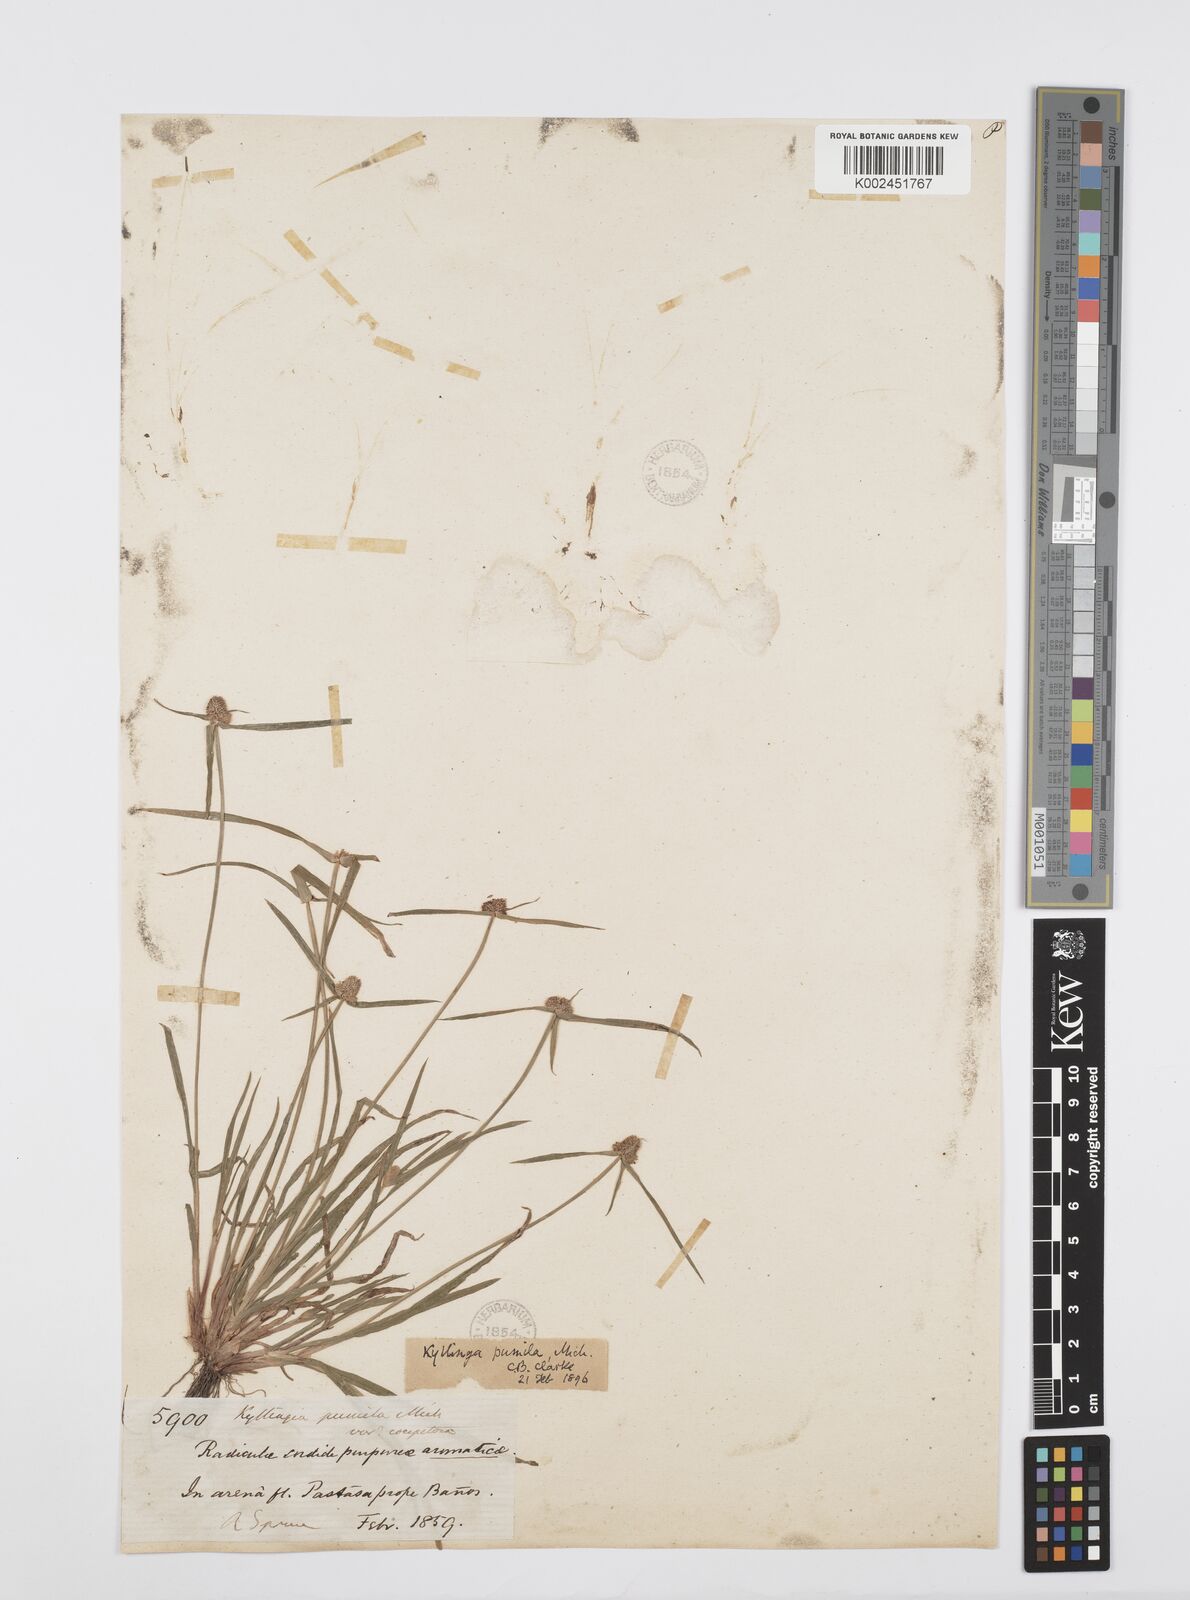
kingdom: Plantae
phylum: Tracheophyta
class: Liliopsida
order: Poales
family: Cyperaceae
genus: Cyperus
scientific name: Cyperus
